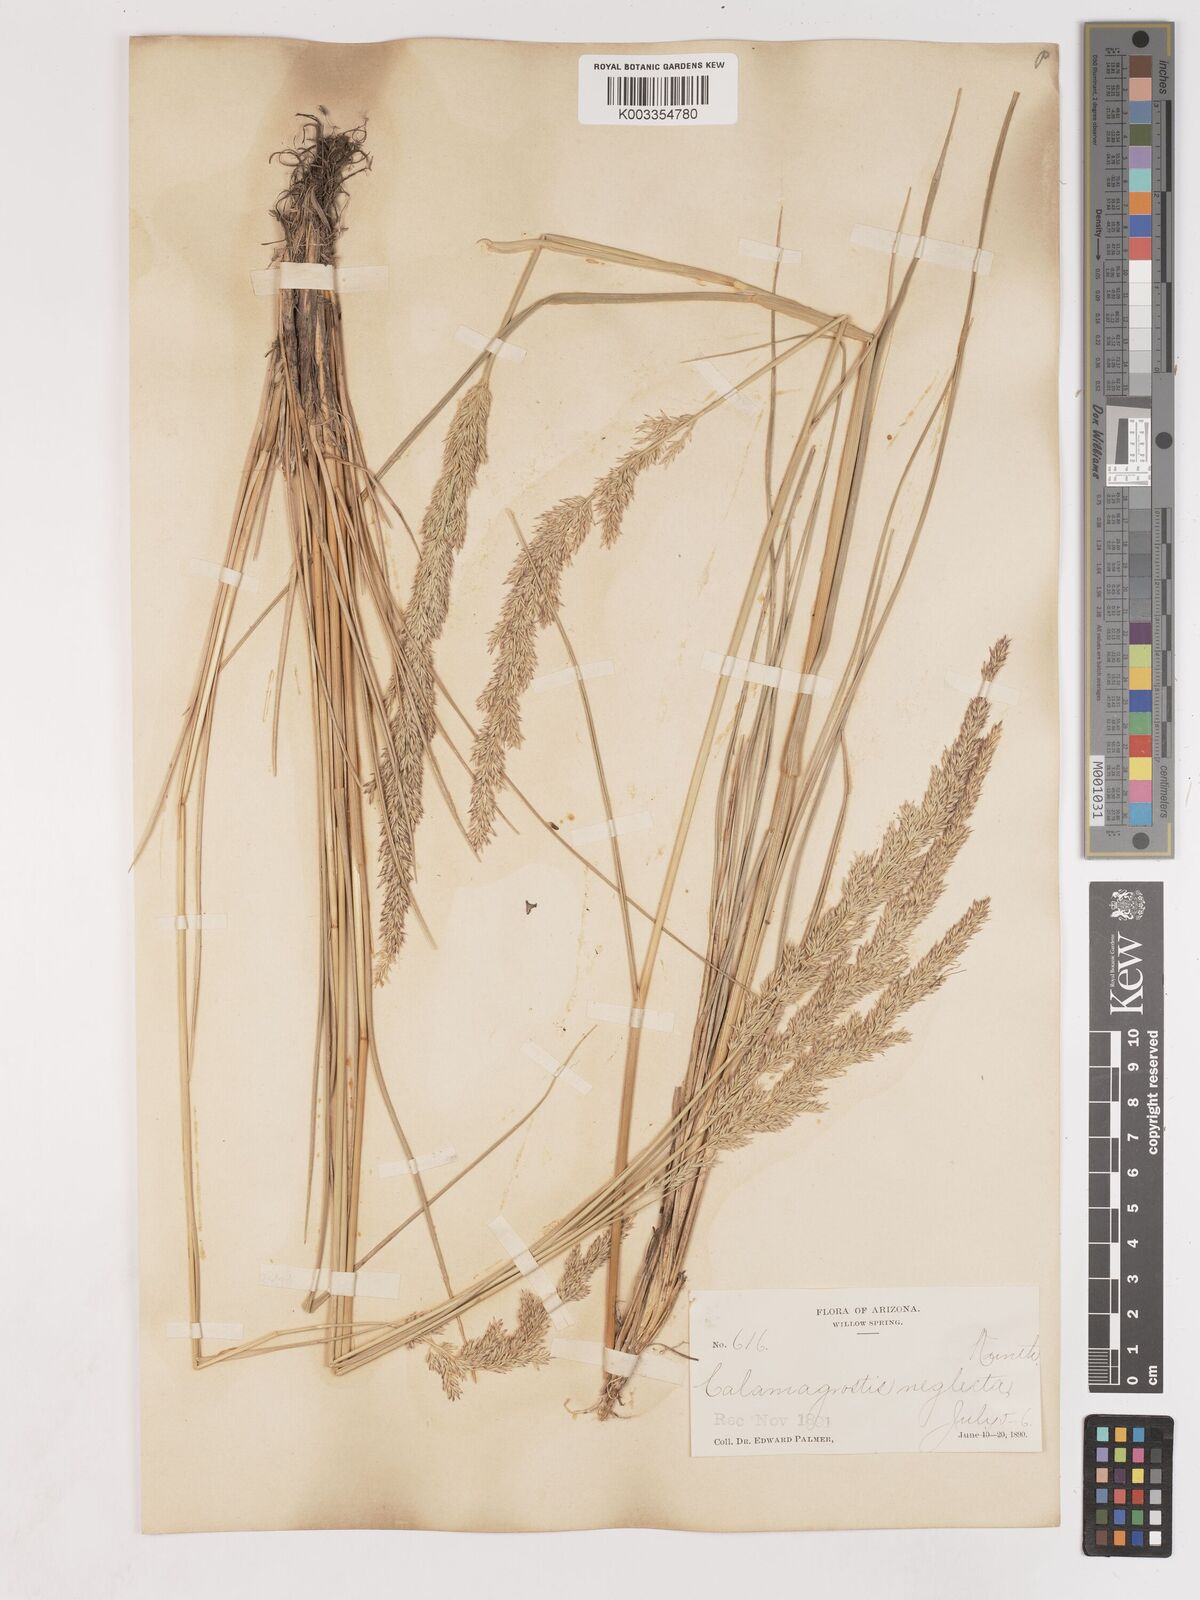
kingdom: Plantae
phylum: Tracheophyta
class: Liliopsida
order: Poales
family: Poaceae
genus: Cinnagrostis
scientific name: Cinnagrostis recta
